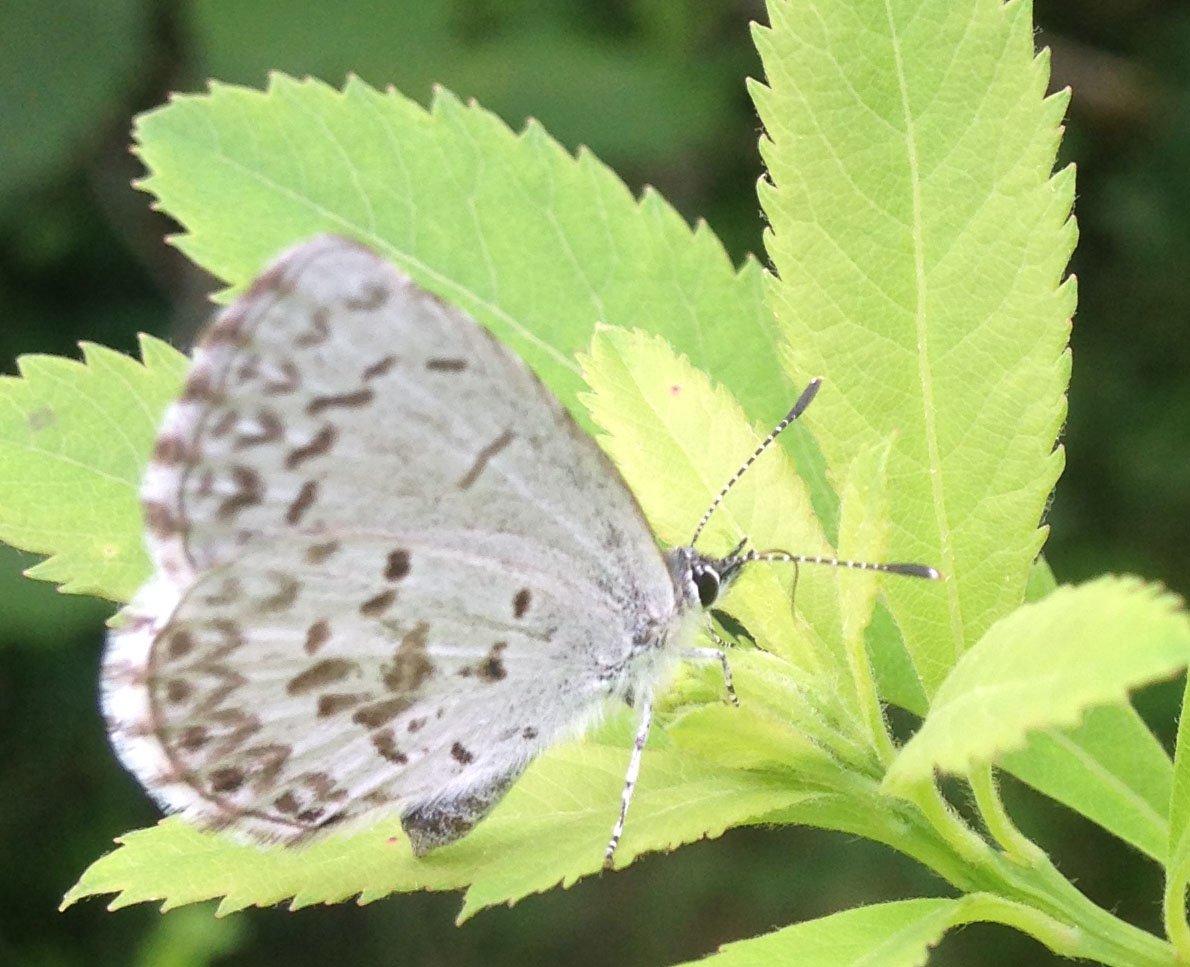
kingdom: Animalia
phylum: Arthropoda
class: Insecta
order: Lepidoptera
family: Lycaenidae
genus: Celastrina
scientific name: Celastrina lucia
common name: Northern Spring Azure
